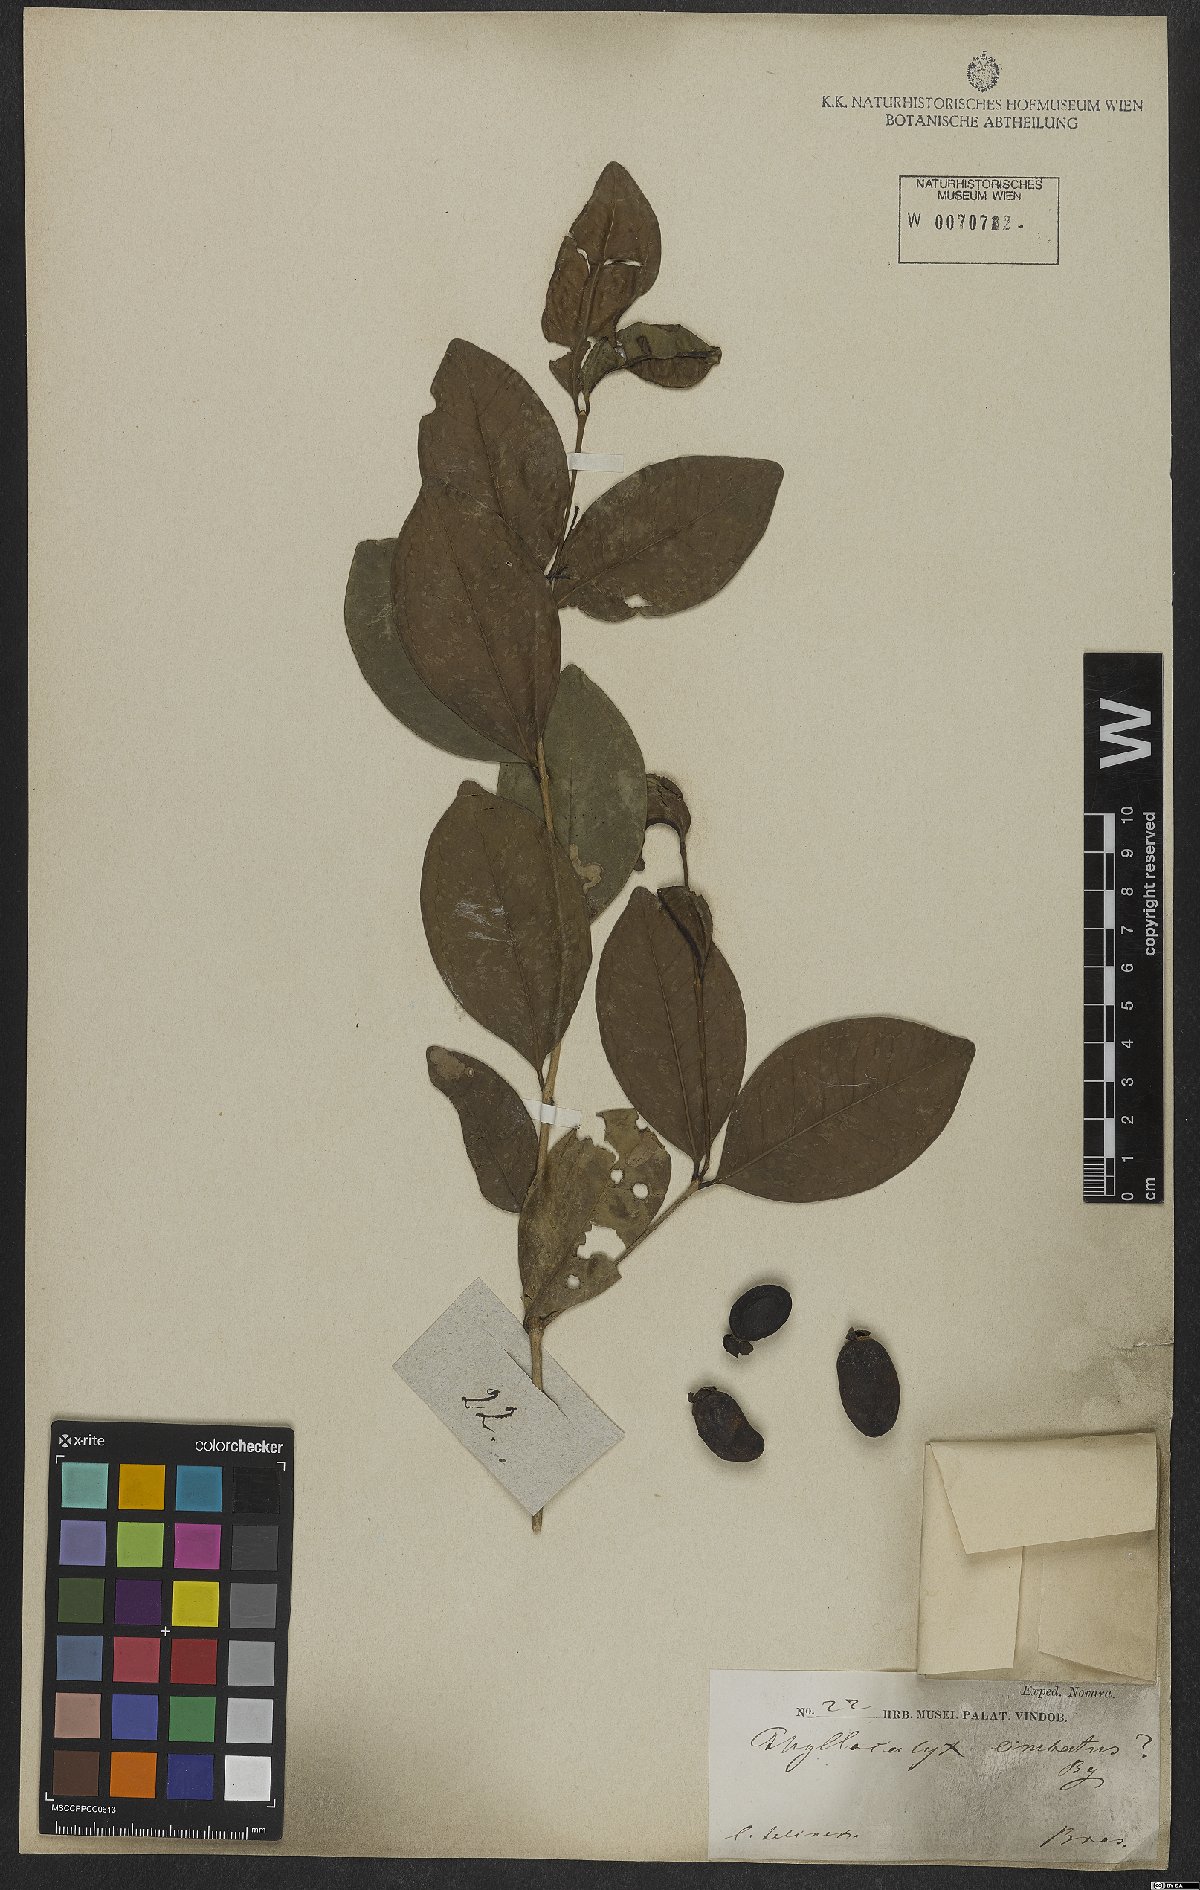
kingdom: Plantae
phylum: Tracheophyta
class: Magnoliopsida
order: Myrtales
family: Myrtaceae
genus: Eugenia
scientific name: Eugenia limbosa
